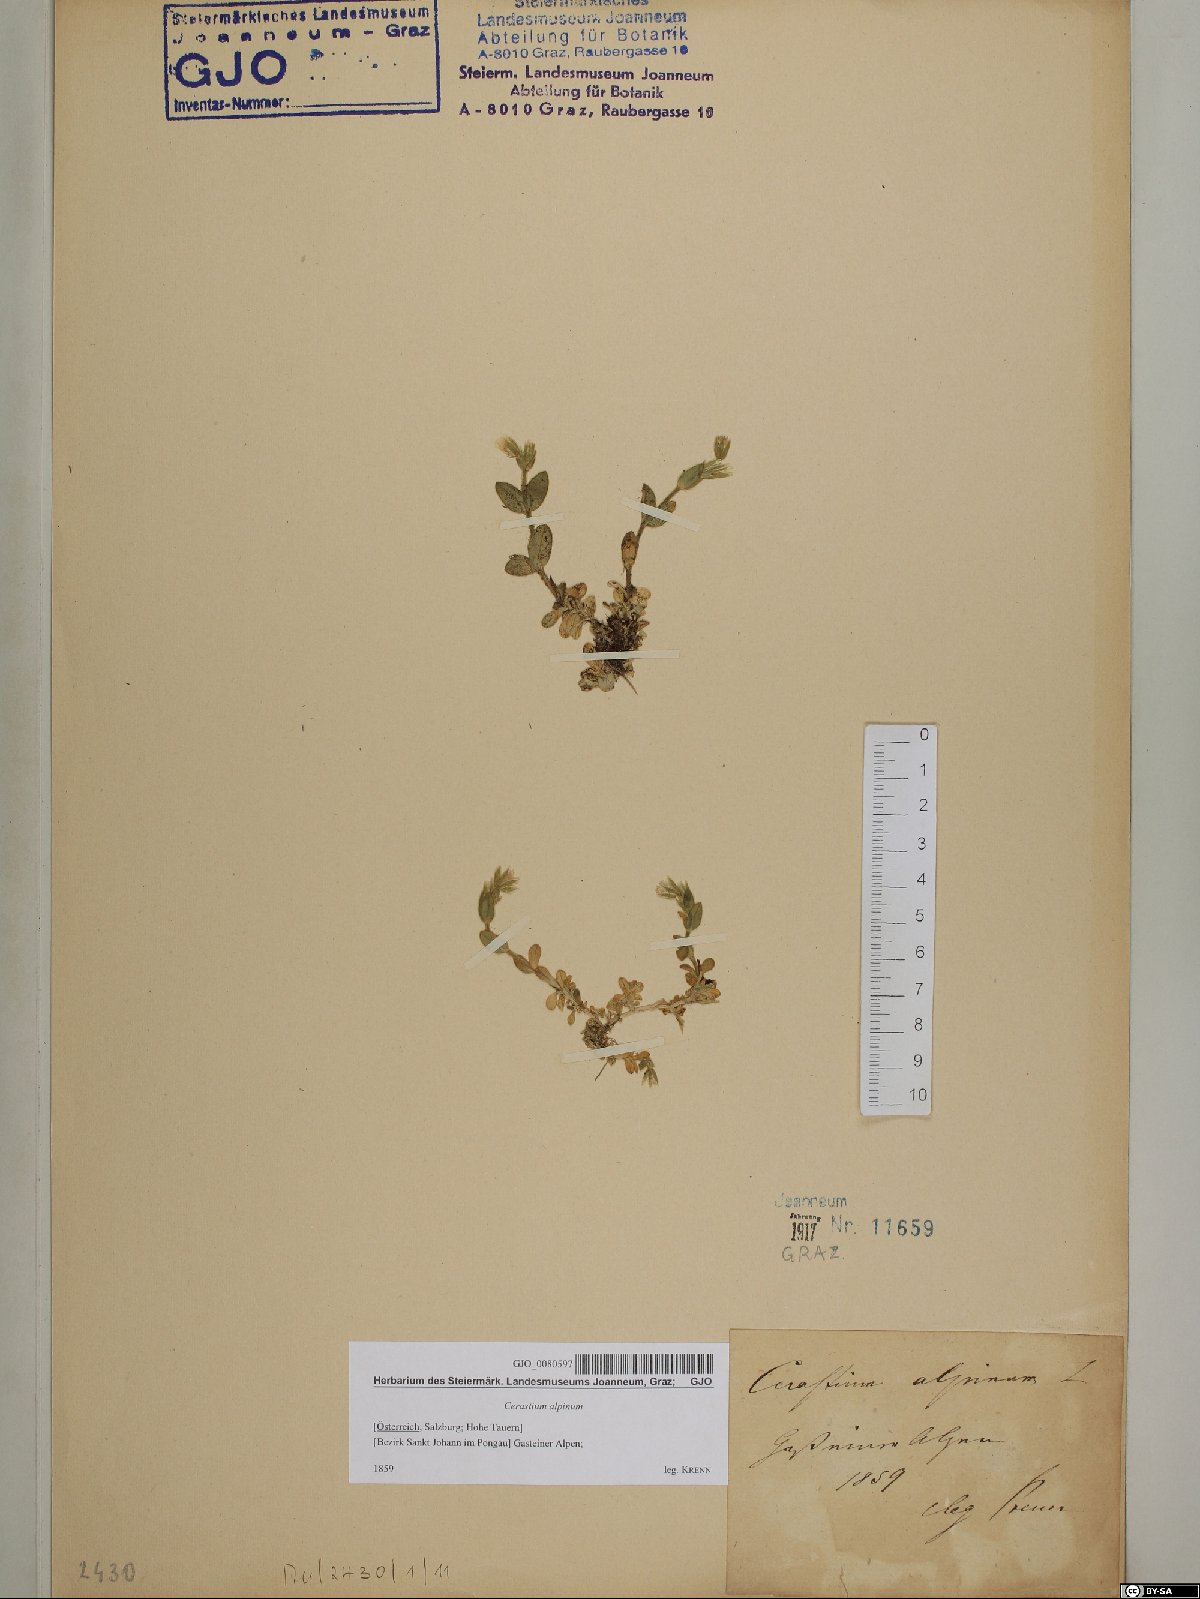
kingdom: Plantae
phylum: Tracheophyta
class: Magnoliopsida
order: Caryophyllales
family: Caryophyllaceae
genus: Cerastium
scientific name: Cerastium alpinum
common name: Alpine mouse-ear
